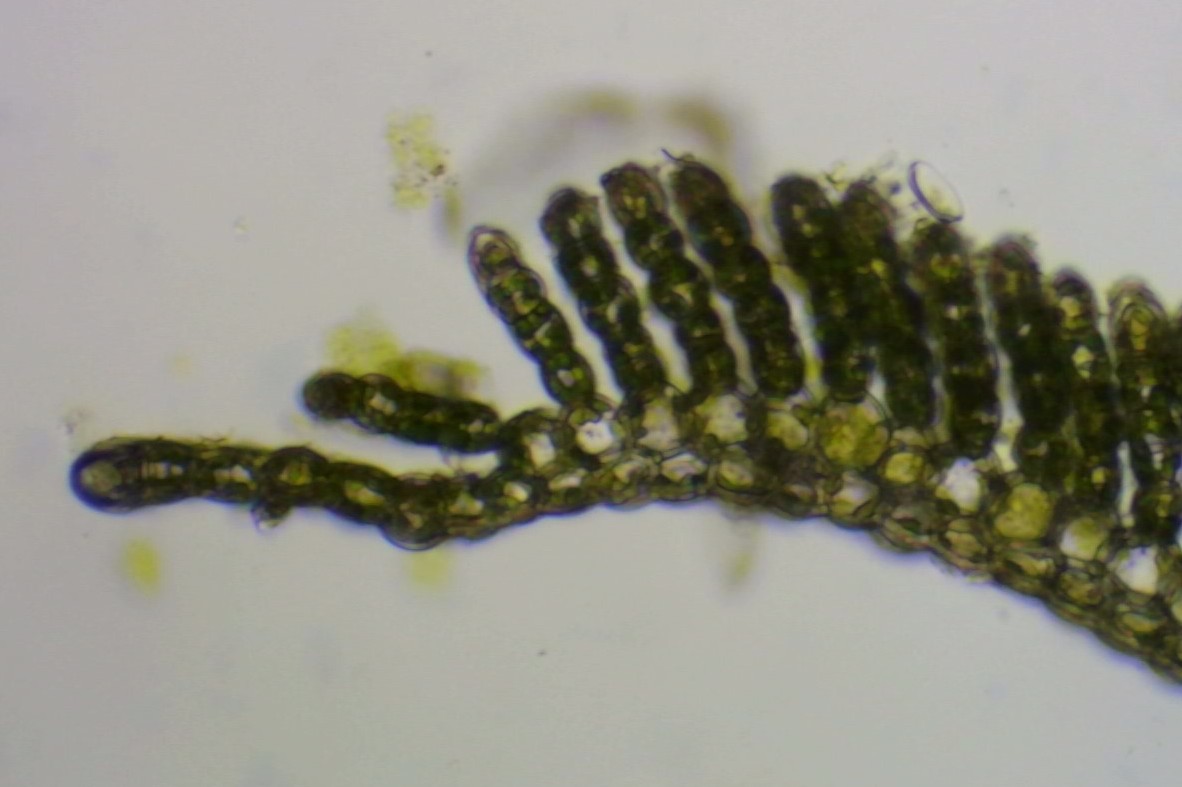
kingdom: Plantae
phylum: Bryophyta
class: Polytrichopsida
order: Polytrichales
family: Polytrichaceae
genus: Polytrichum
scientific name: Polytrichum formosum
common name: Skov-jomfruhår
